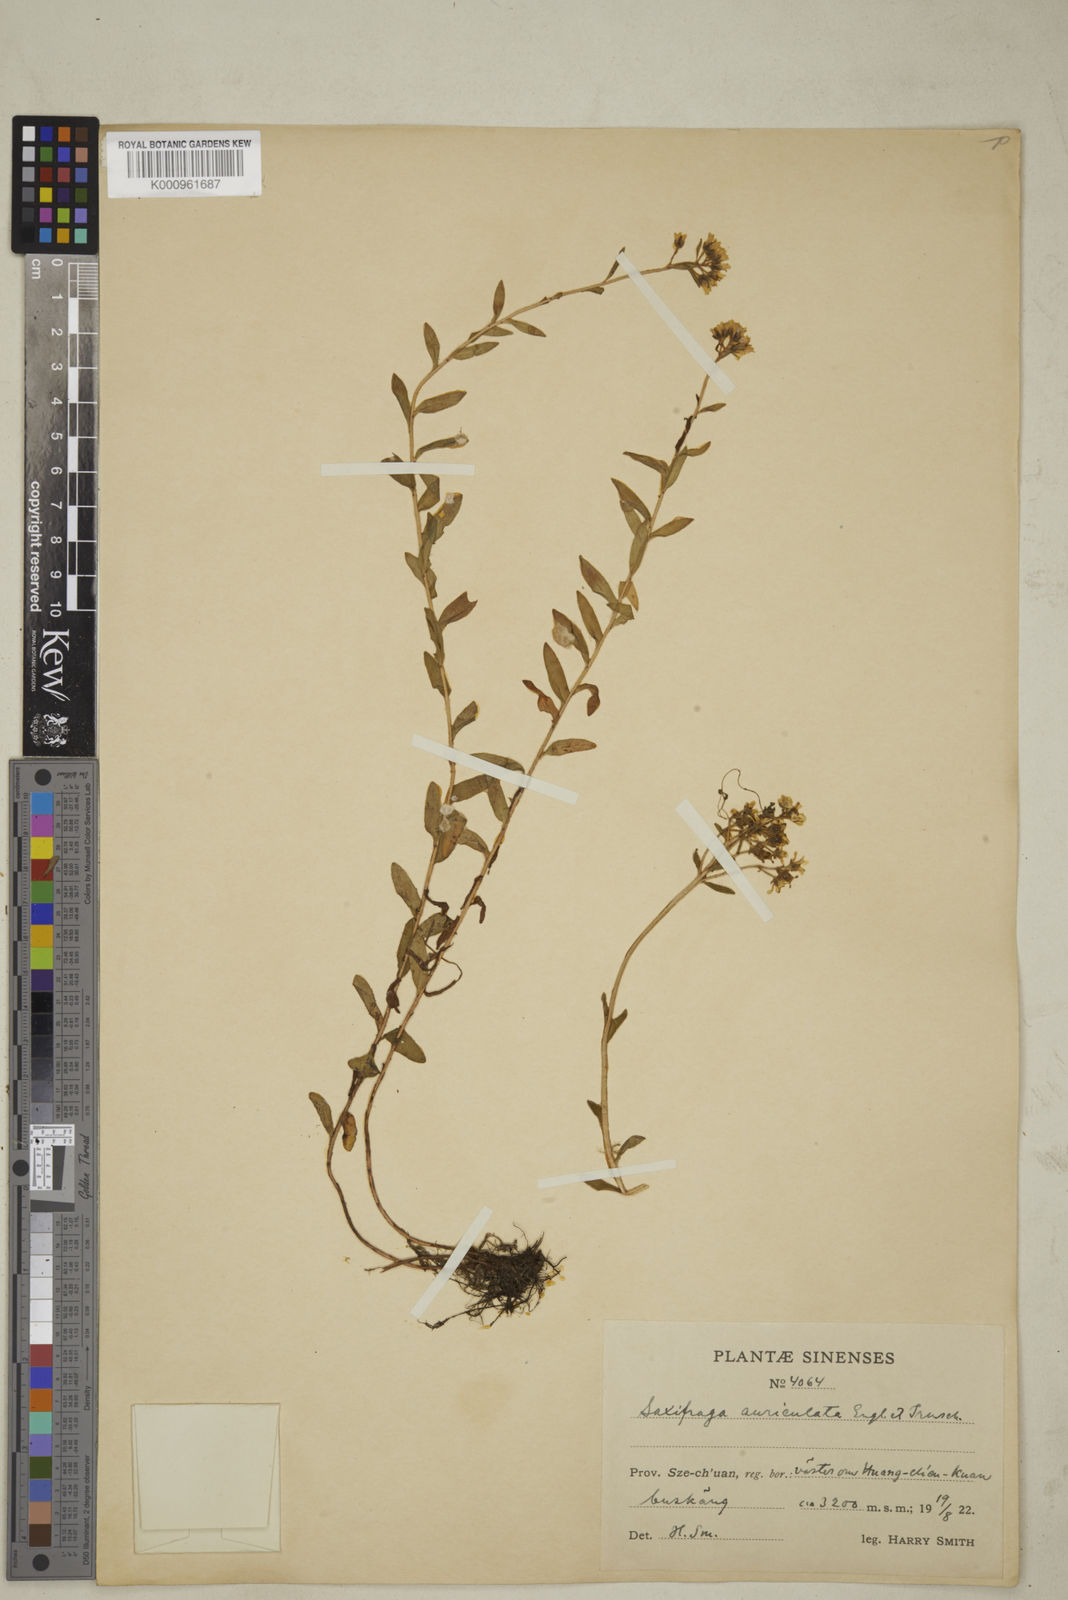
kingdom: Plantae
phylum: Tracheophyta
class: Magnoliopsida
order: Saxifragales
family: Saxifragaceae
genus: Saxifraga
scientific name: Saxifraga auriculata
